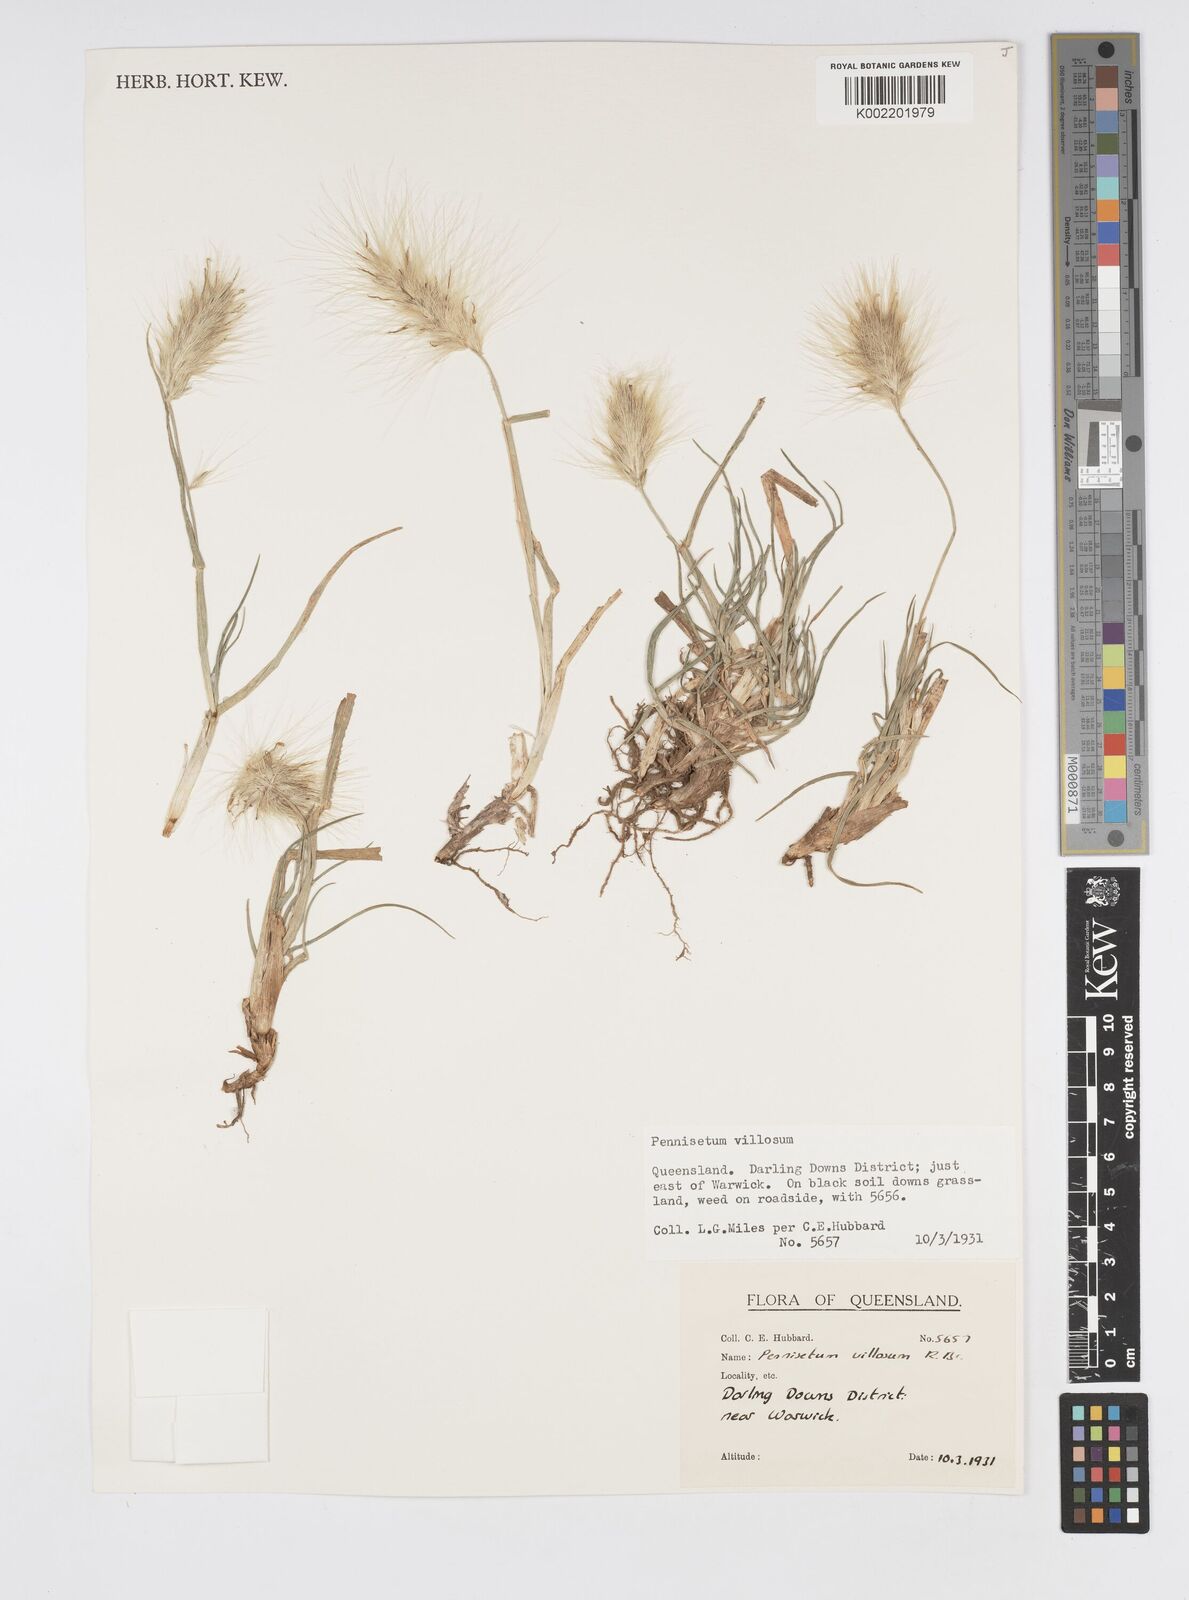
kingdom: Plantae
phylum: Tracheophyta
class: Liliopsida
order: Poales
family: Poaceae
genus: Cenchrus
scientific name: Cenchrus longisetus
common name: Feathertop
